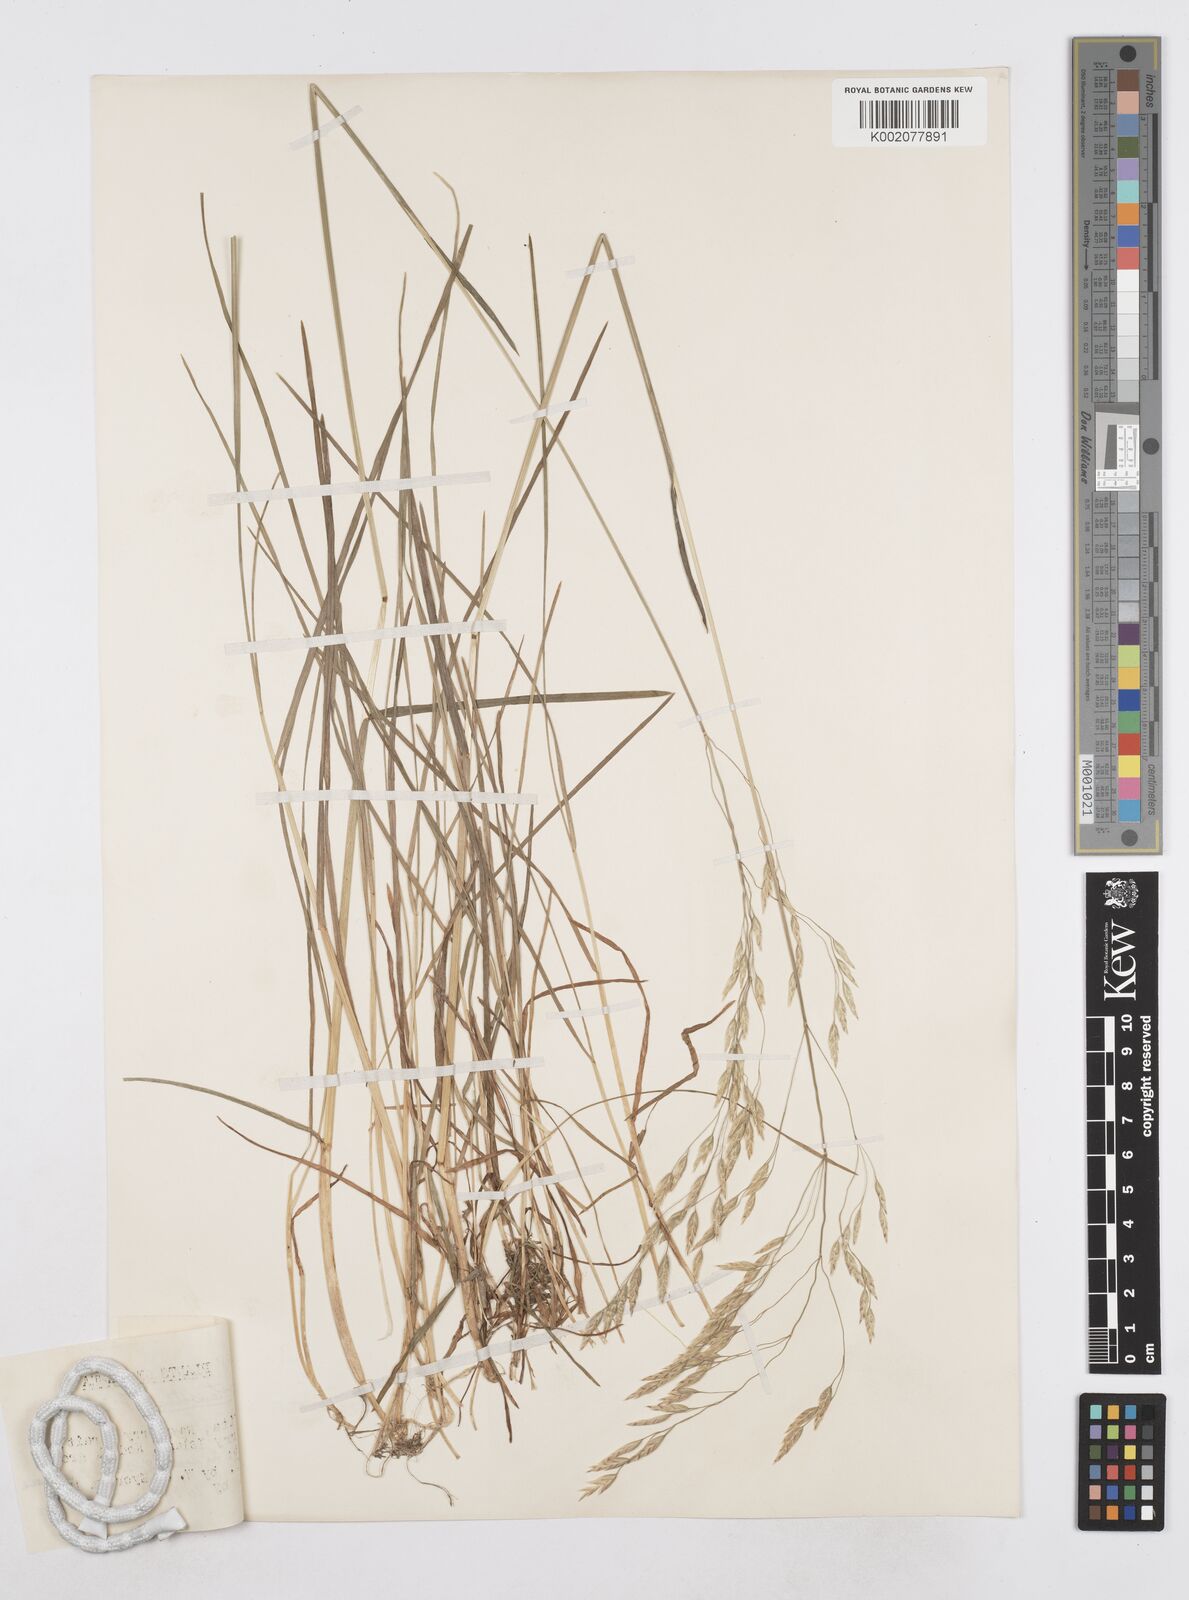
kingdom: Plantae
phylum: Tracheophyta
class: Liliopsida
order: Poales
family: Poaceae
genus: Poa
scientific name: Poa stenantha
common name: Narrow-flowered bluegrass
